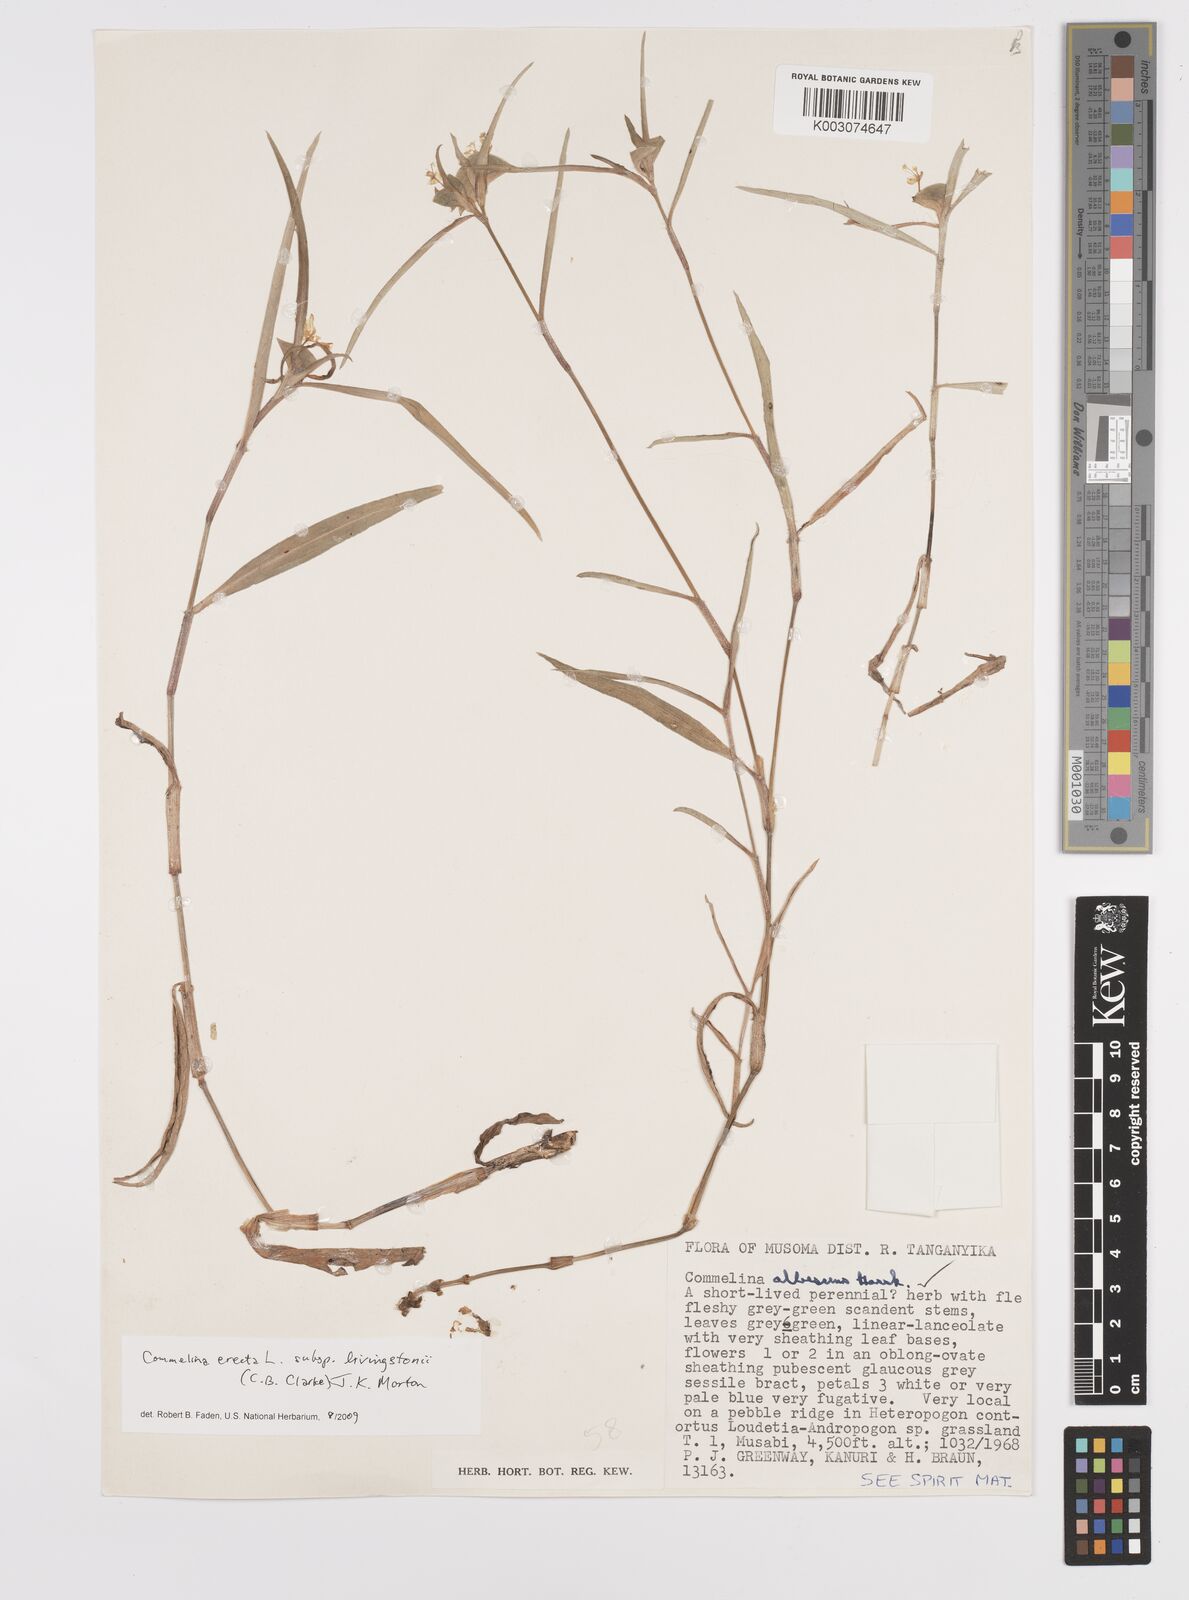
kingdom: Plantae
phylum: Tracheophyta
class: Liliopsida
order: Commelinales
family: Commelinaceae
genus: Commelina
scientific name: Commelina erecta
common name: Blousel blommetjie
